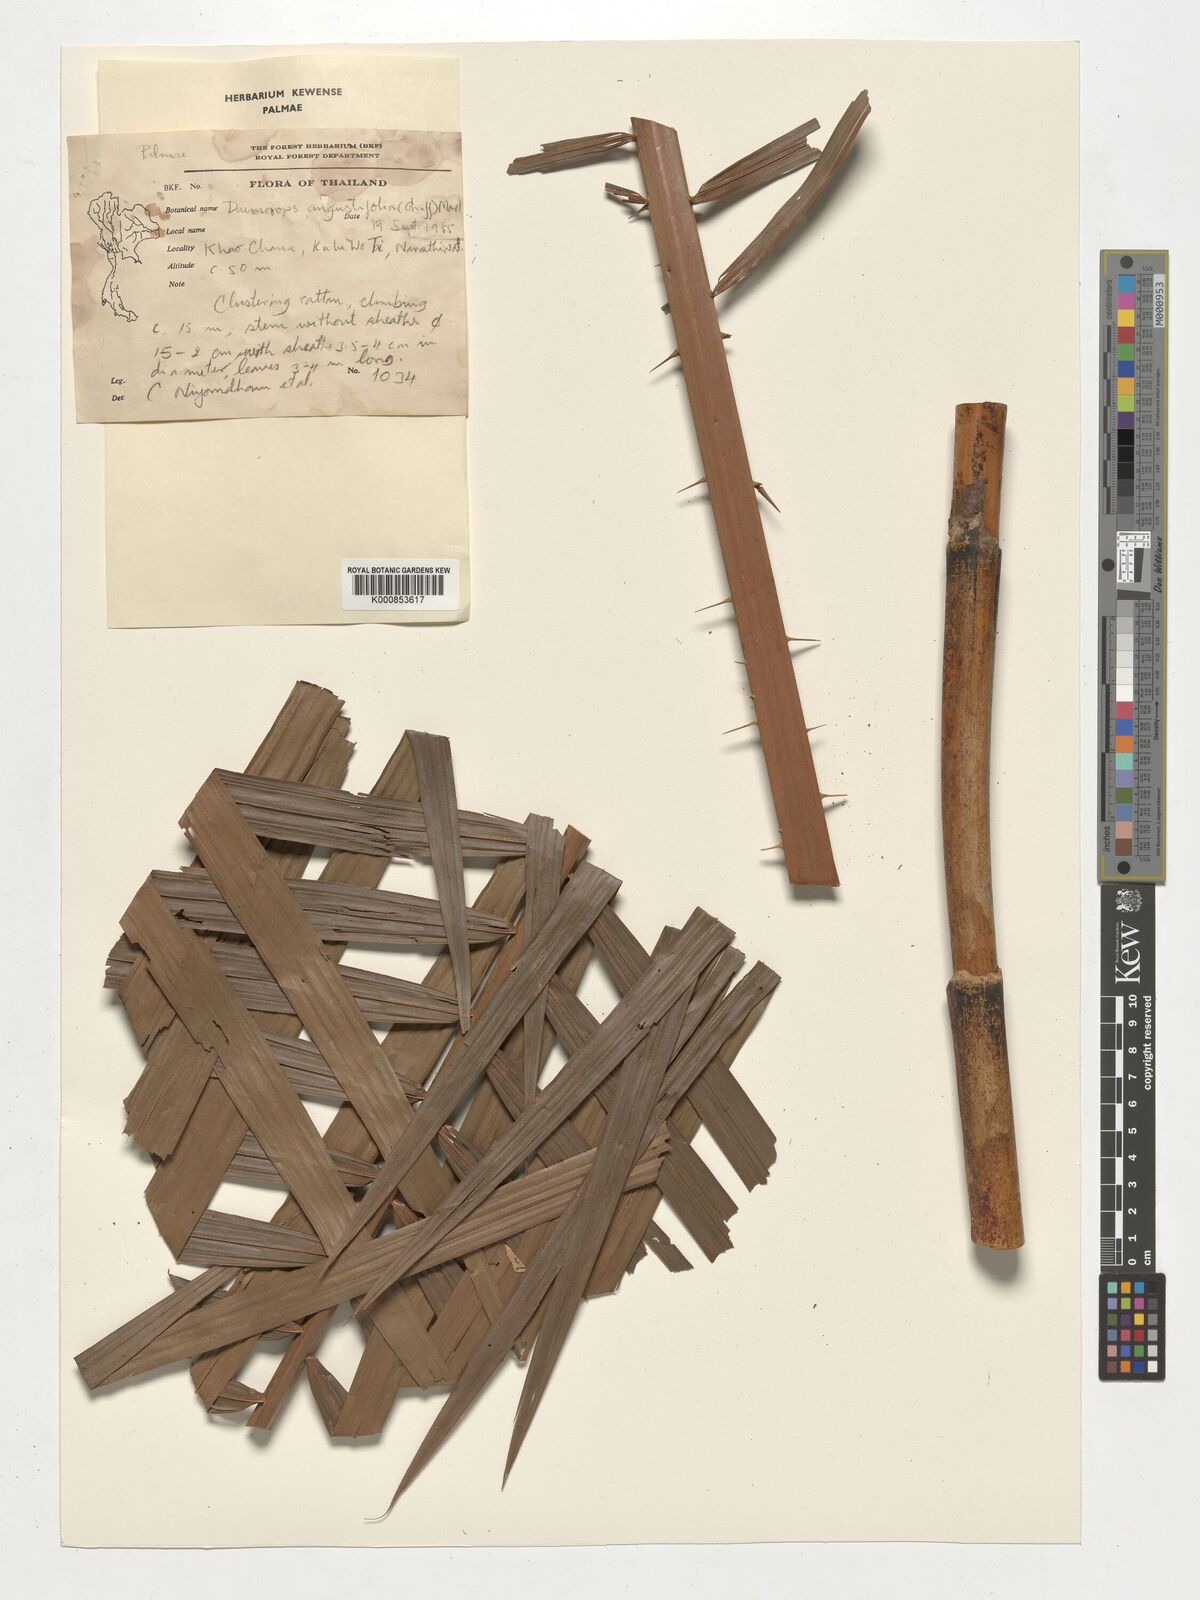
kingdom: Plantae
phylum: Tracheophyta
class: Liliopsida
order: Arecales
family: Arecaceae
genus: Calamus
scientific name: Calamus melanochaetes
